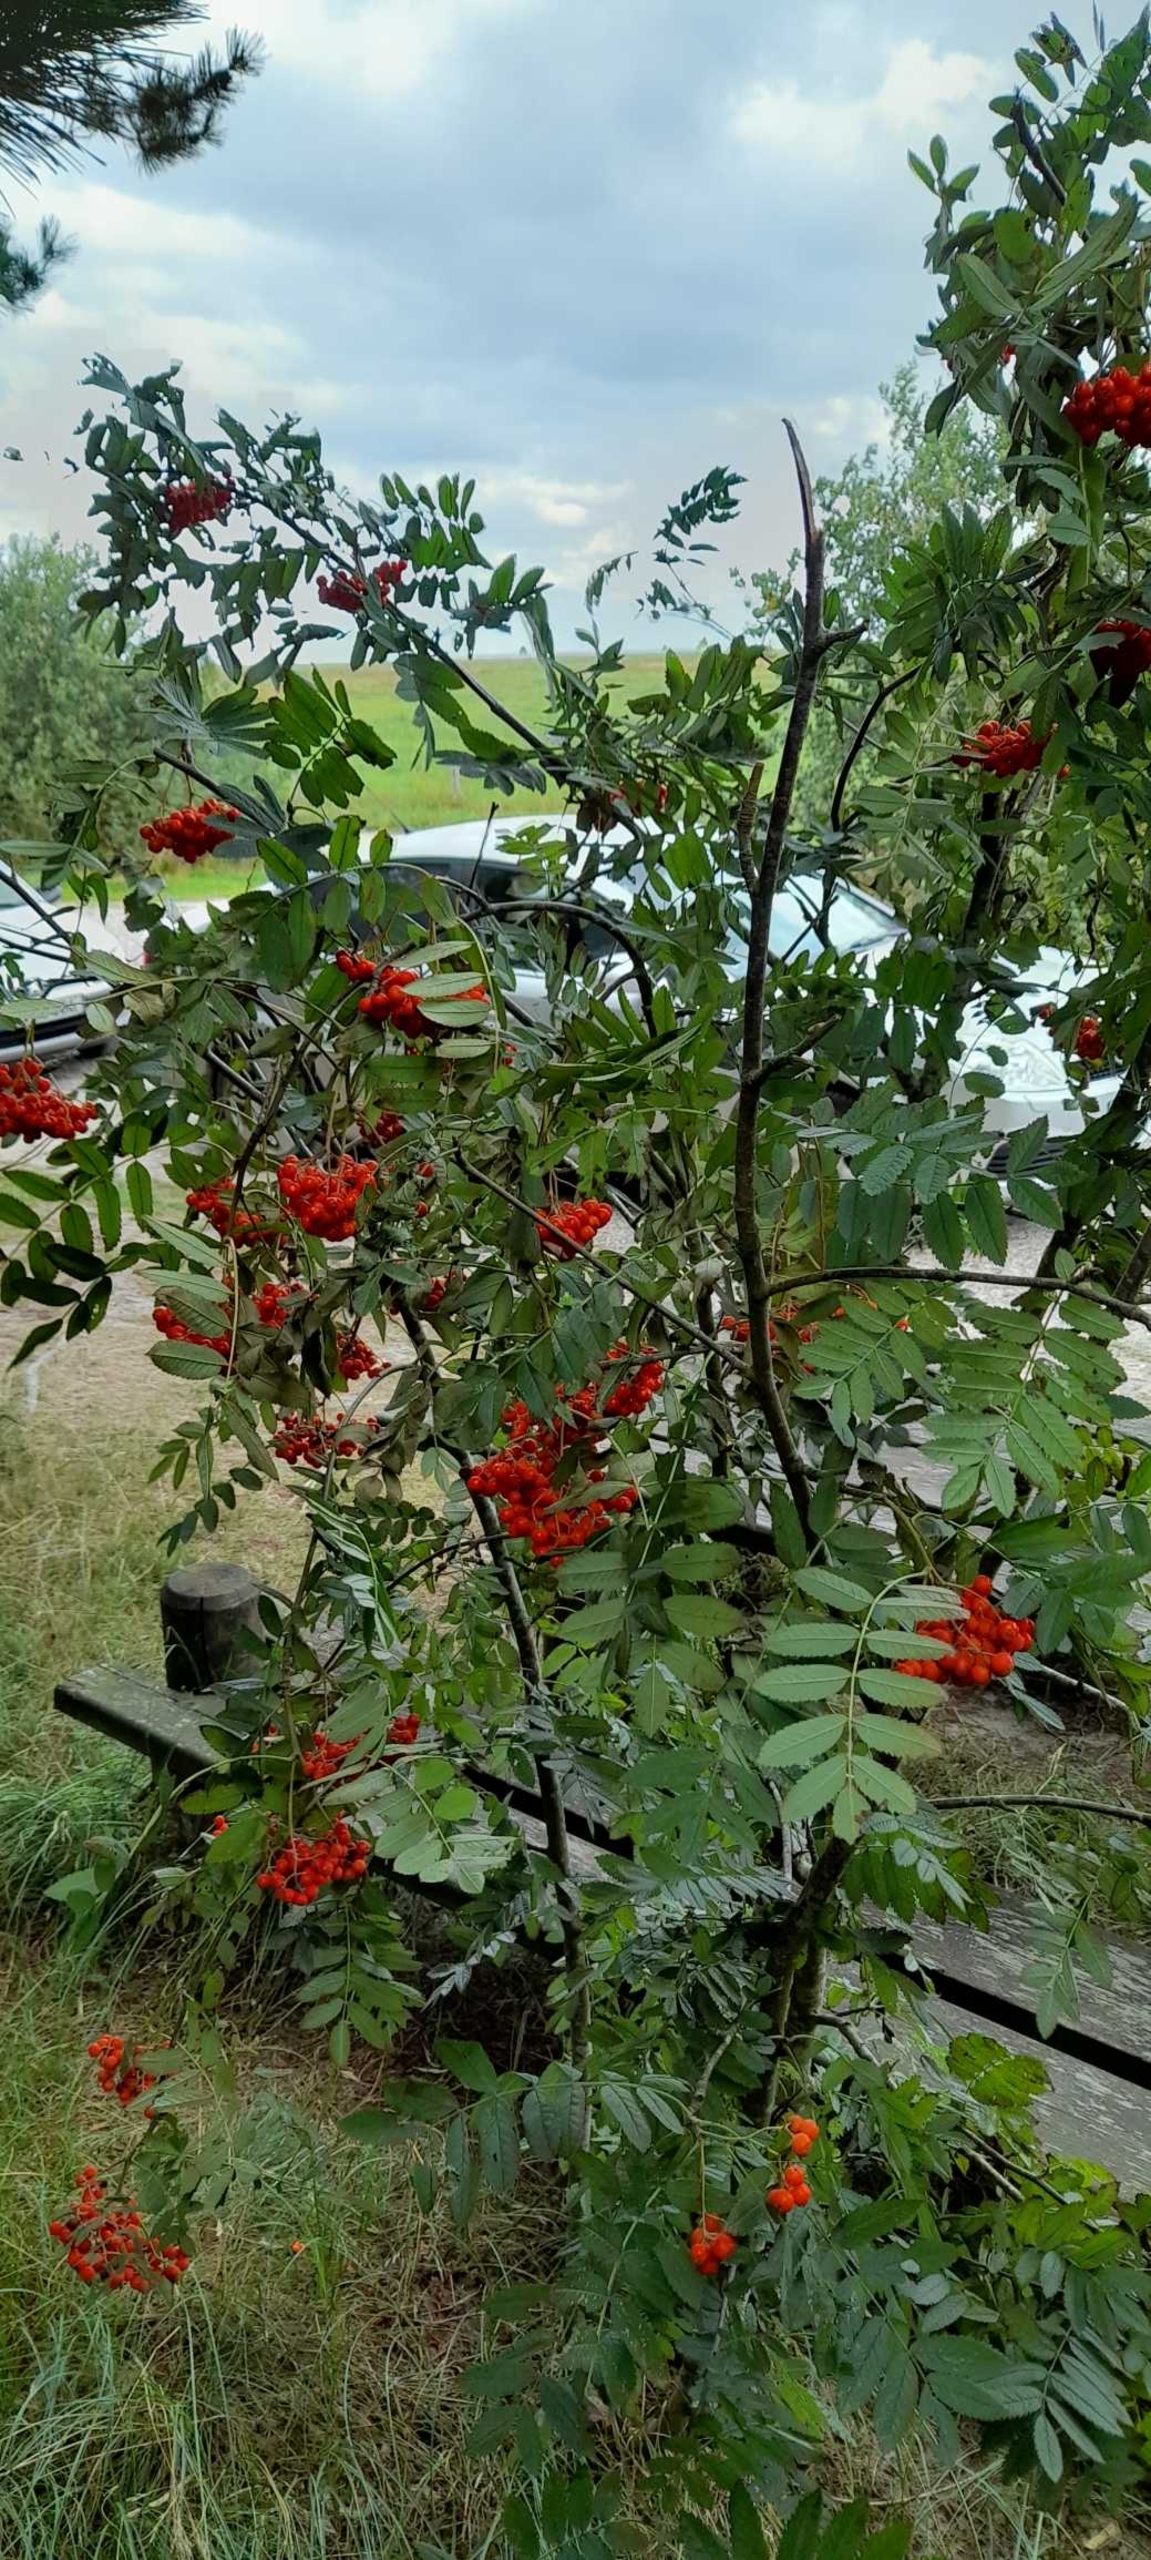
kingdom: Plantae
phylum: Tracheophyta
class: Magnoliopsida
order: Rosales
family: Rosaceae
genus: Sorbus
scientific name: Sorbus aucuparia
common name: Almindelig røn
